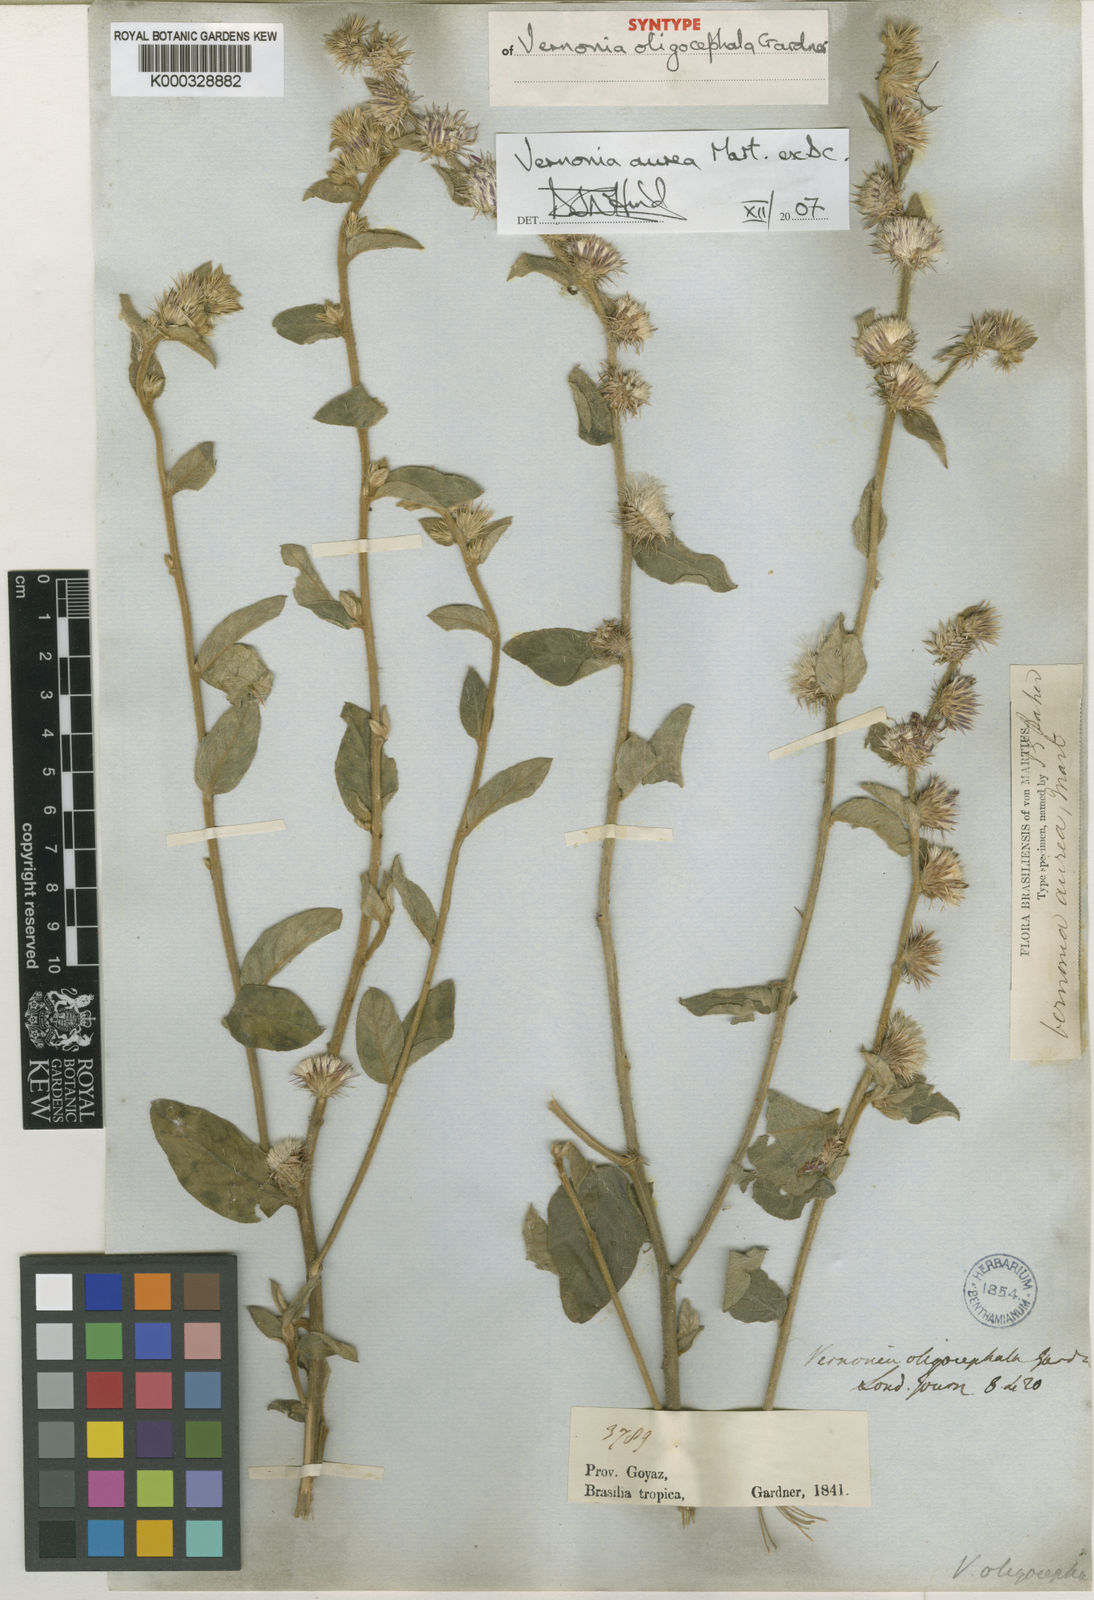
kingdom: Plantae
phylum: Tracheophyta
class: Magnoliopsida
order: Asterales
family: Asteraceae
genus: Lepidaploa
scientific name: Lepidaploa aurea
